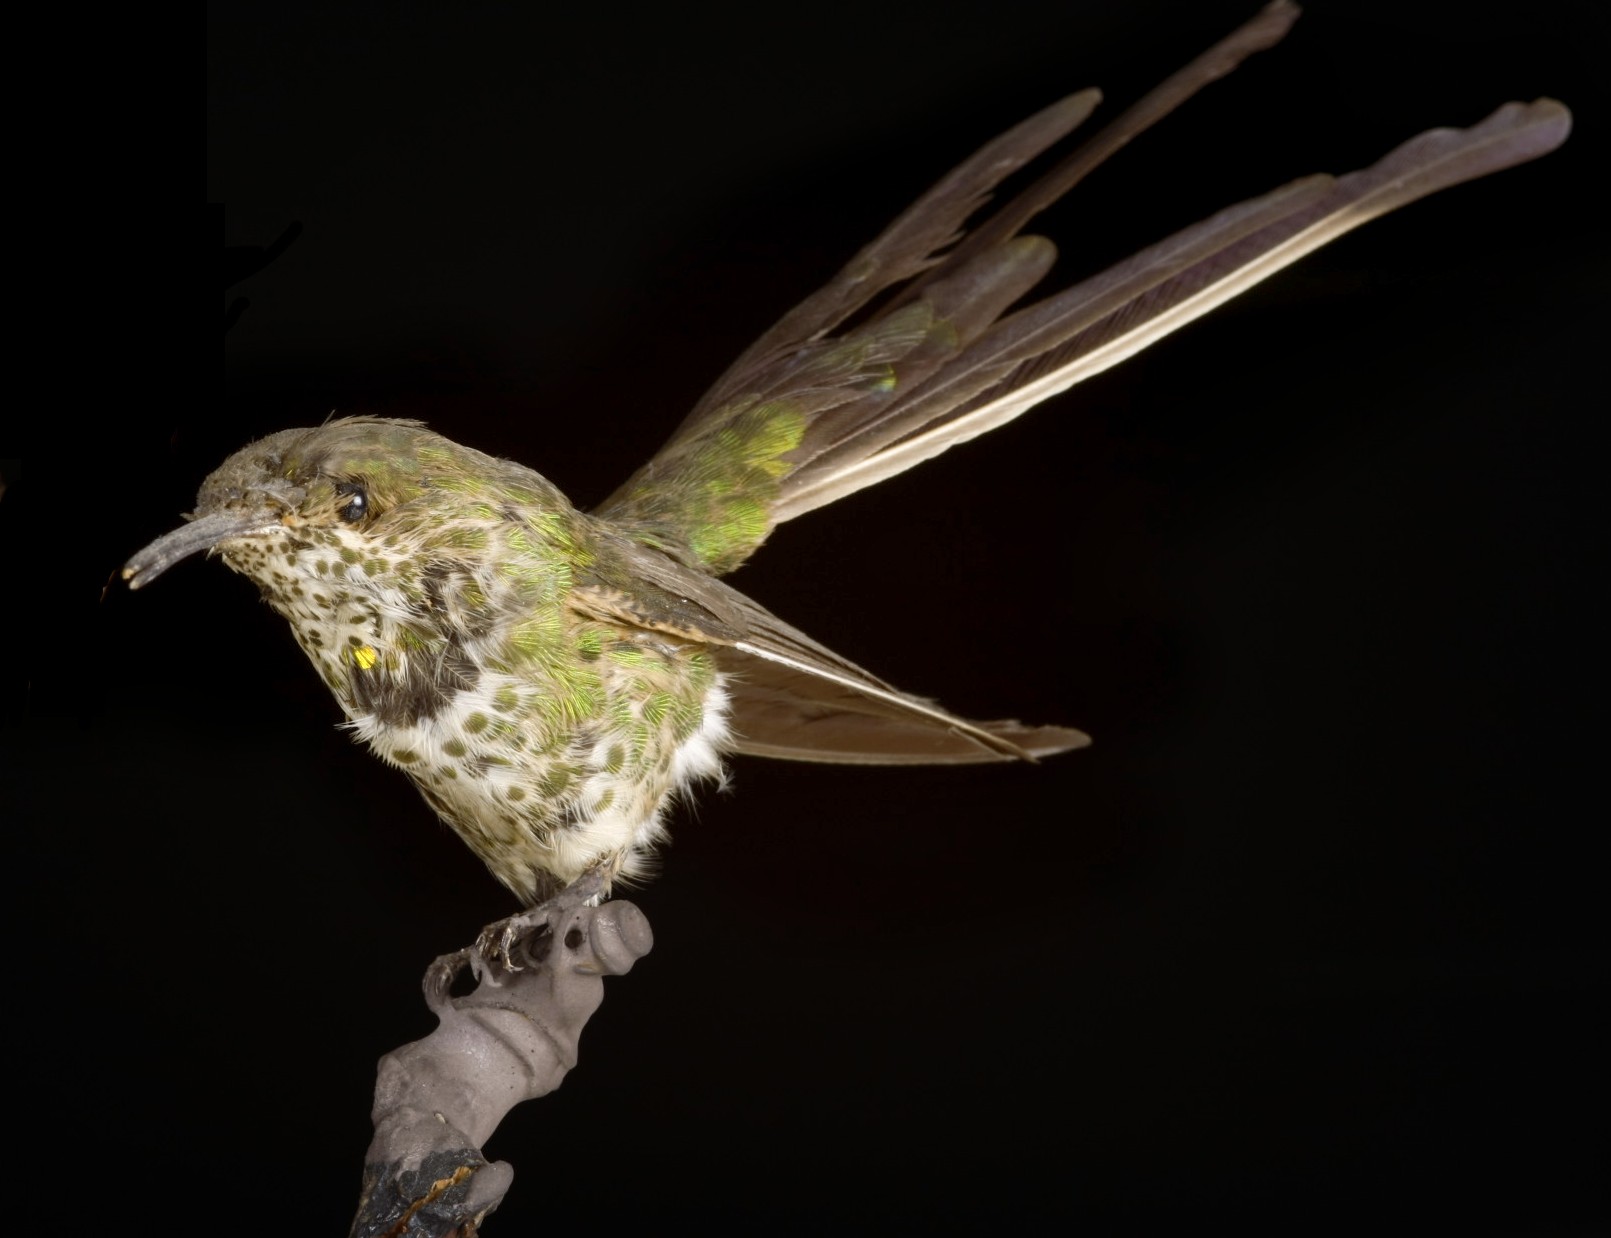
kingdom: Animalia
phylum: Chordata
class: Aves
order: Apodiformes
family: Trochilidae
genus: Lesbia
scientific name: Lesbia nuna
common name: Green-tailed trainbearer
